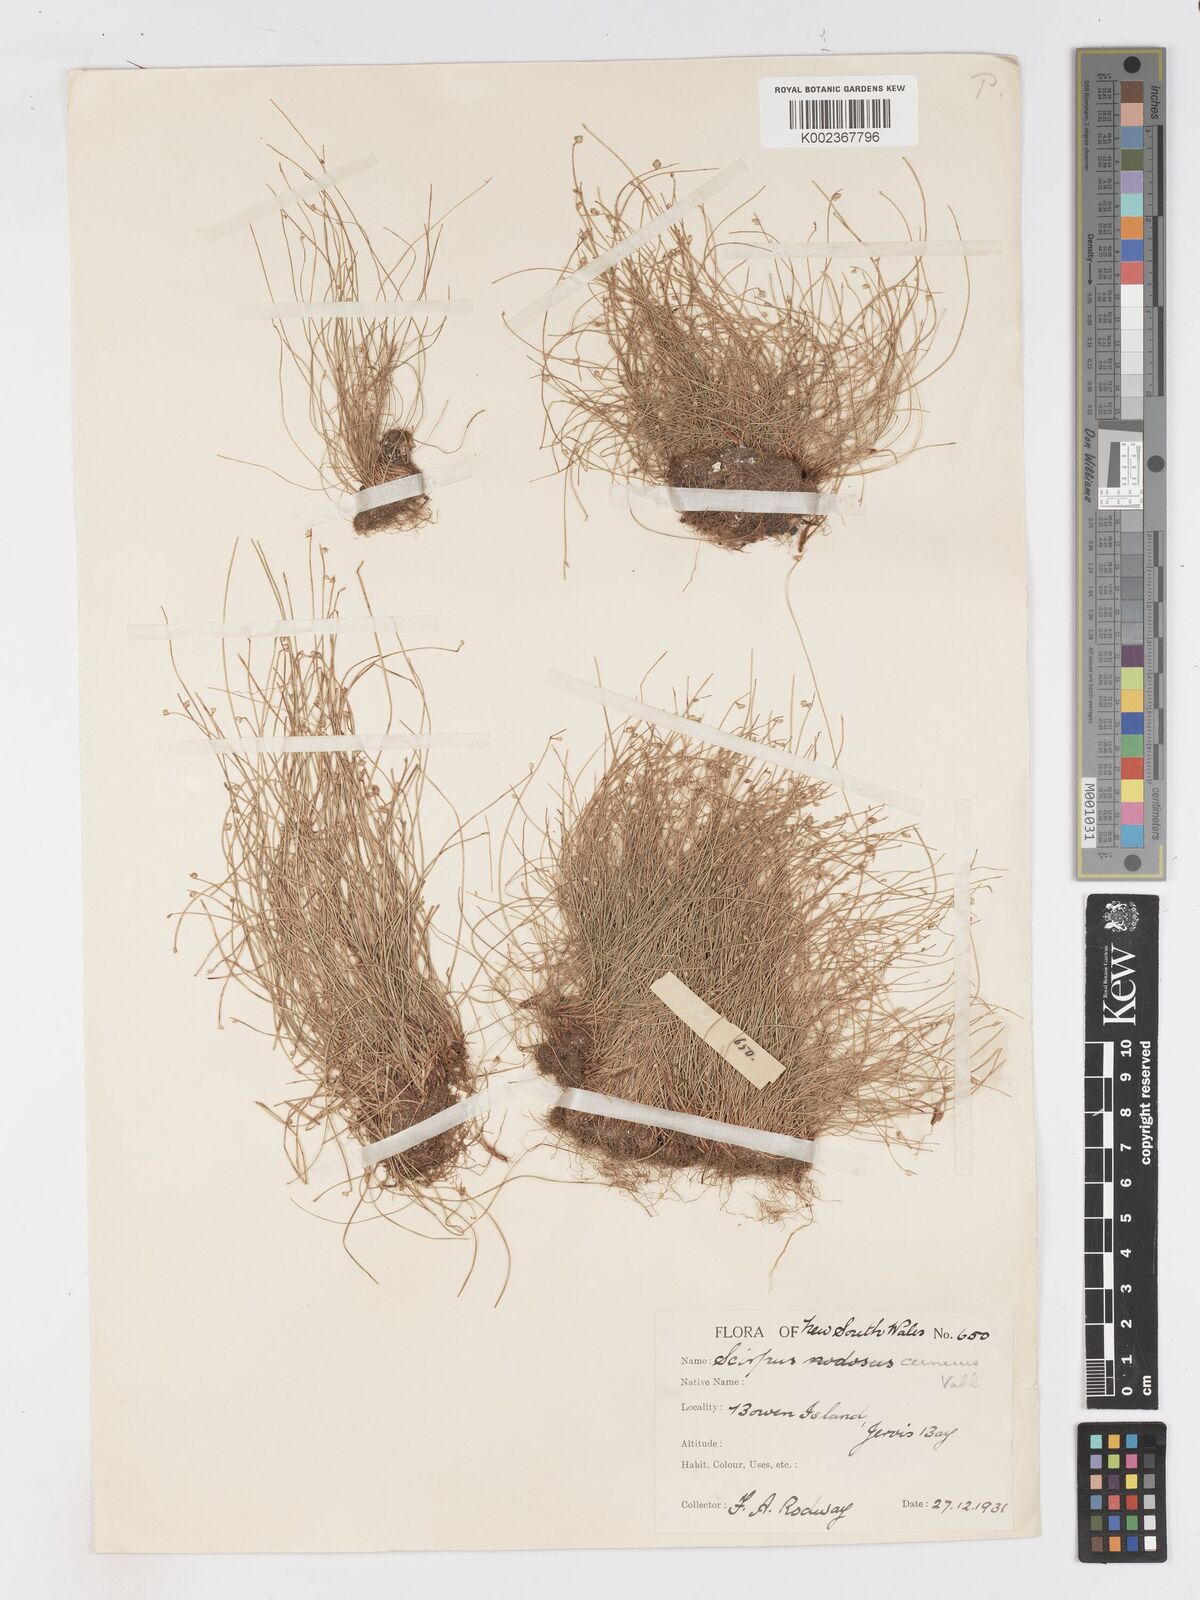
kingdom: Plantae
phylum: Tracheophyta
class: Liliopsida
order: Poales
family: Cyperaceae
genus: Isolepis
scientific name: Isolepis cernua
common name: Slender club-rush
